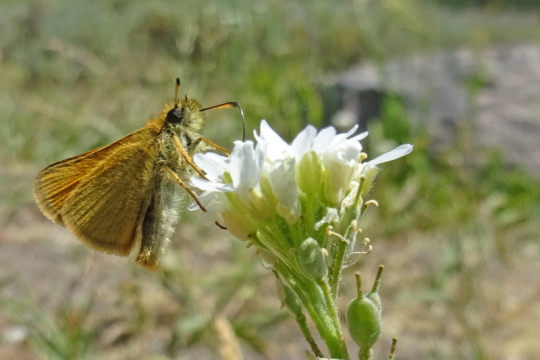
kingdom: Animalia
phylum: Arthropoda
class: Insecta
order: Lepidoptera
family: Hesperiidae
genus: Thymelicus
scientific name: Thymelicus lineola
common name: European Skipper
